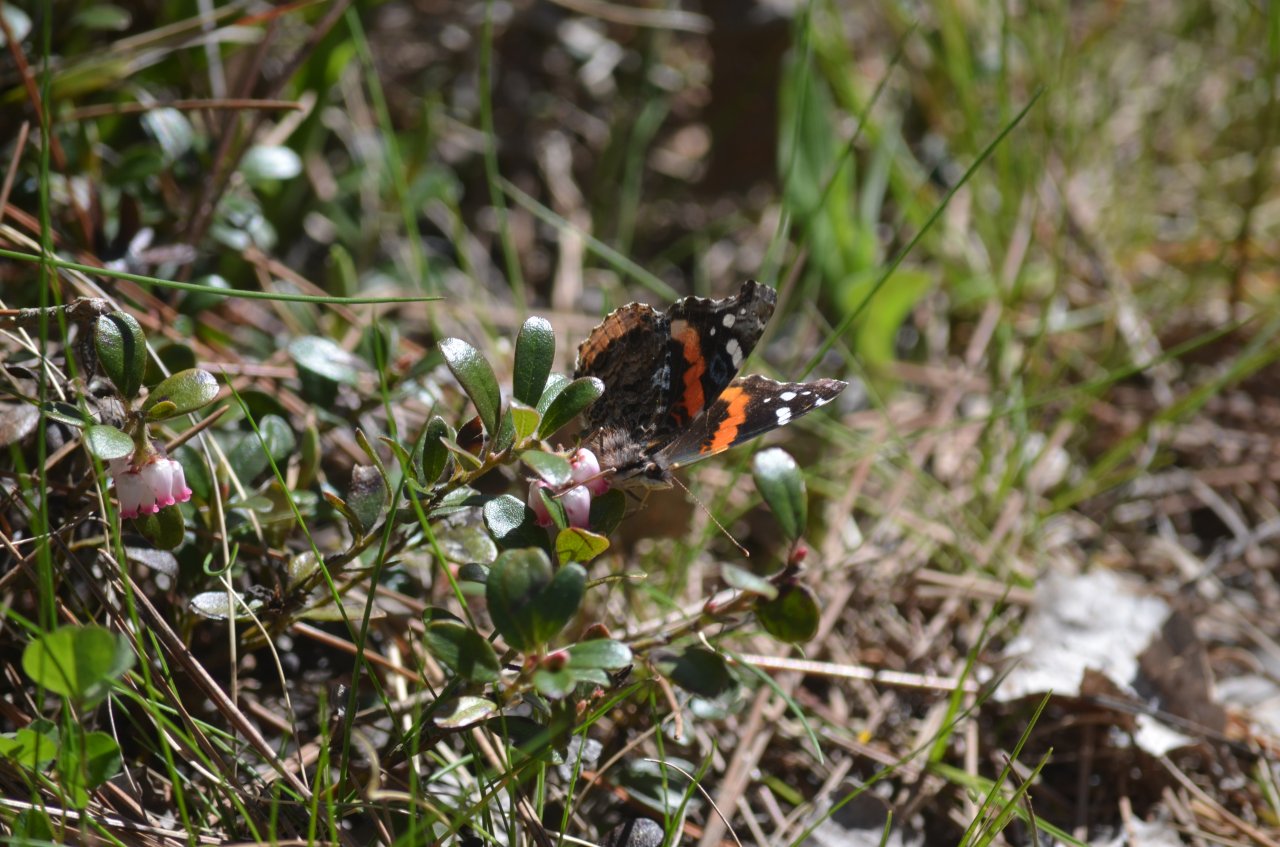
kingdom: Animalia
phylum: Arthropoda
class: Insecta
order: Lepidoptera
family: Nymphalidae
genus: Vanessa
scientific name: Vanessa atalanta
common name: Red Admiral
